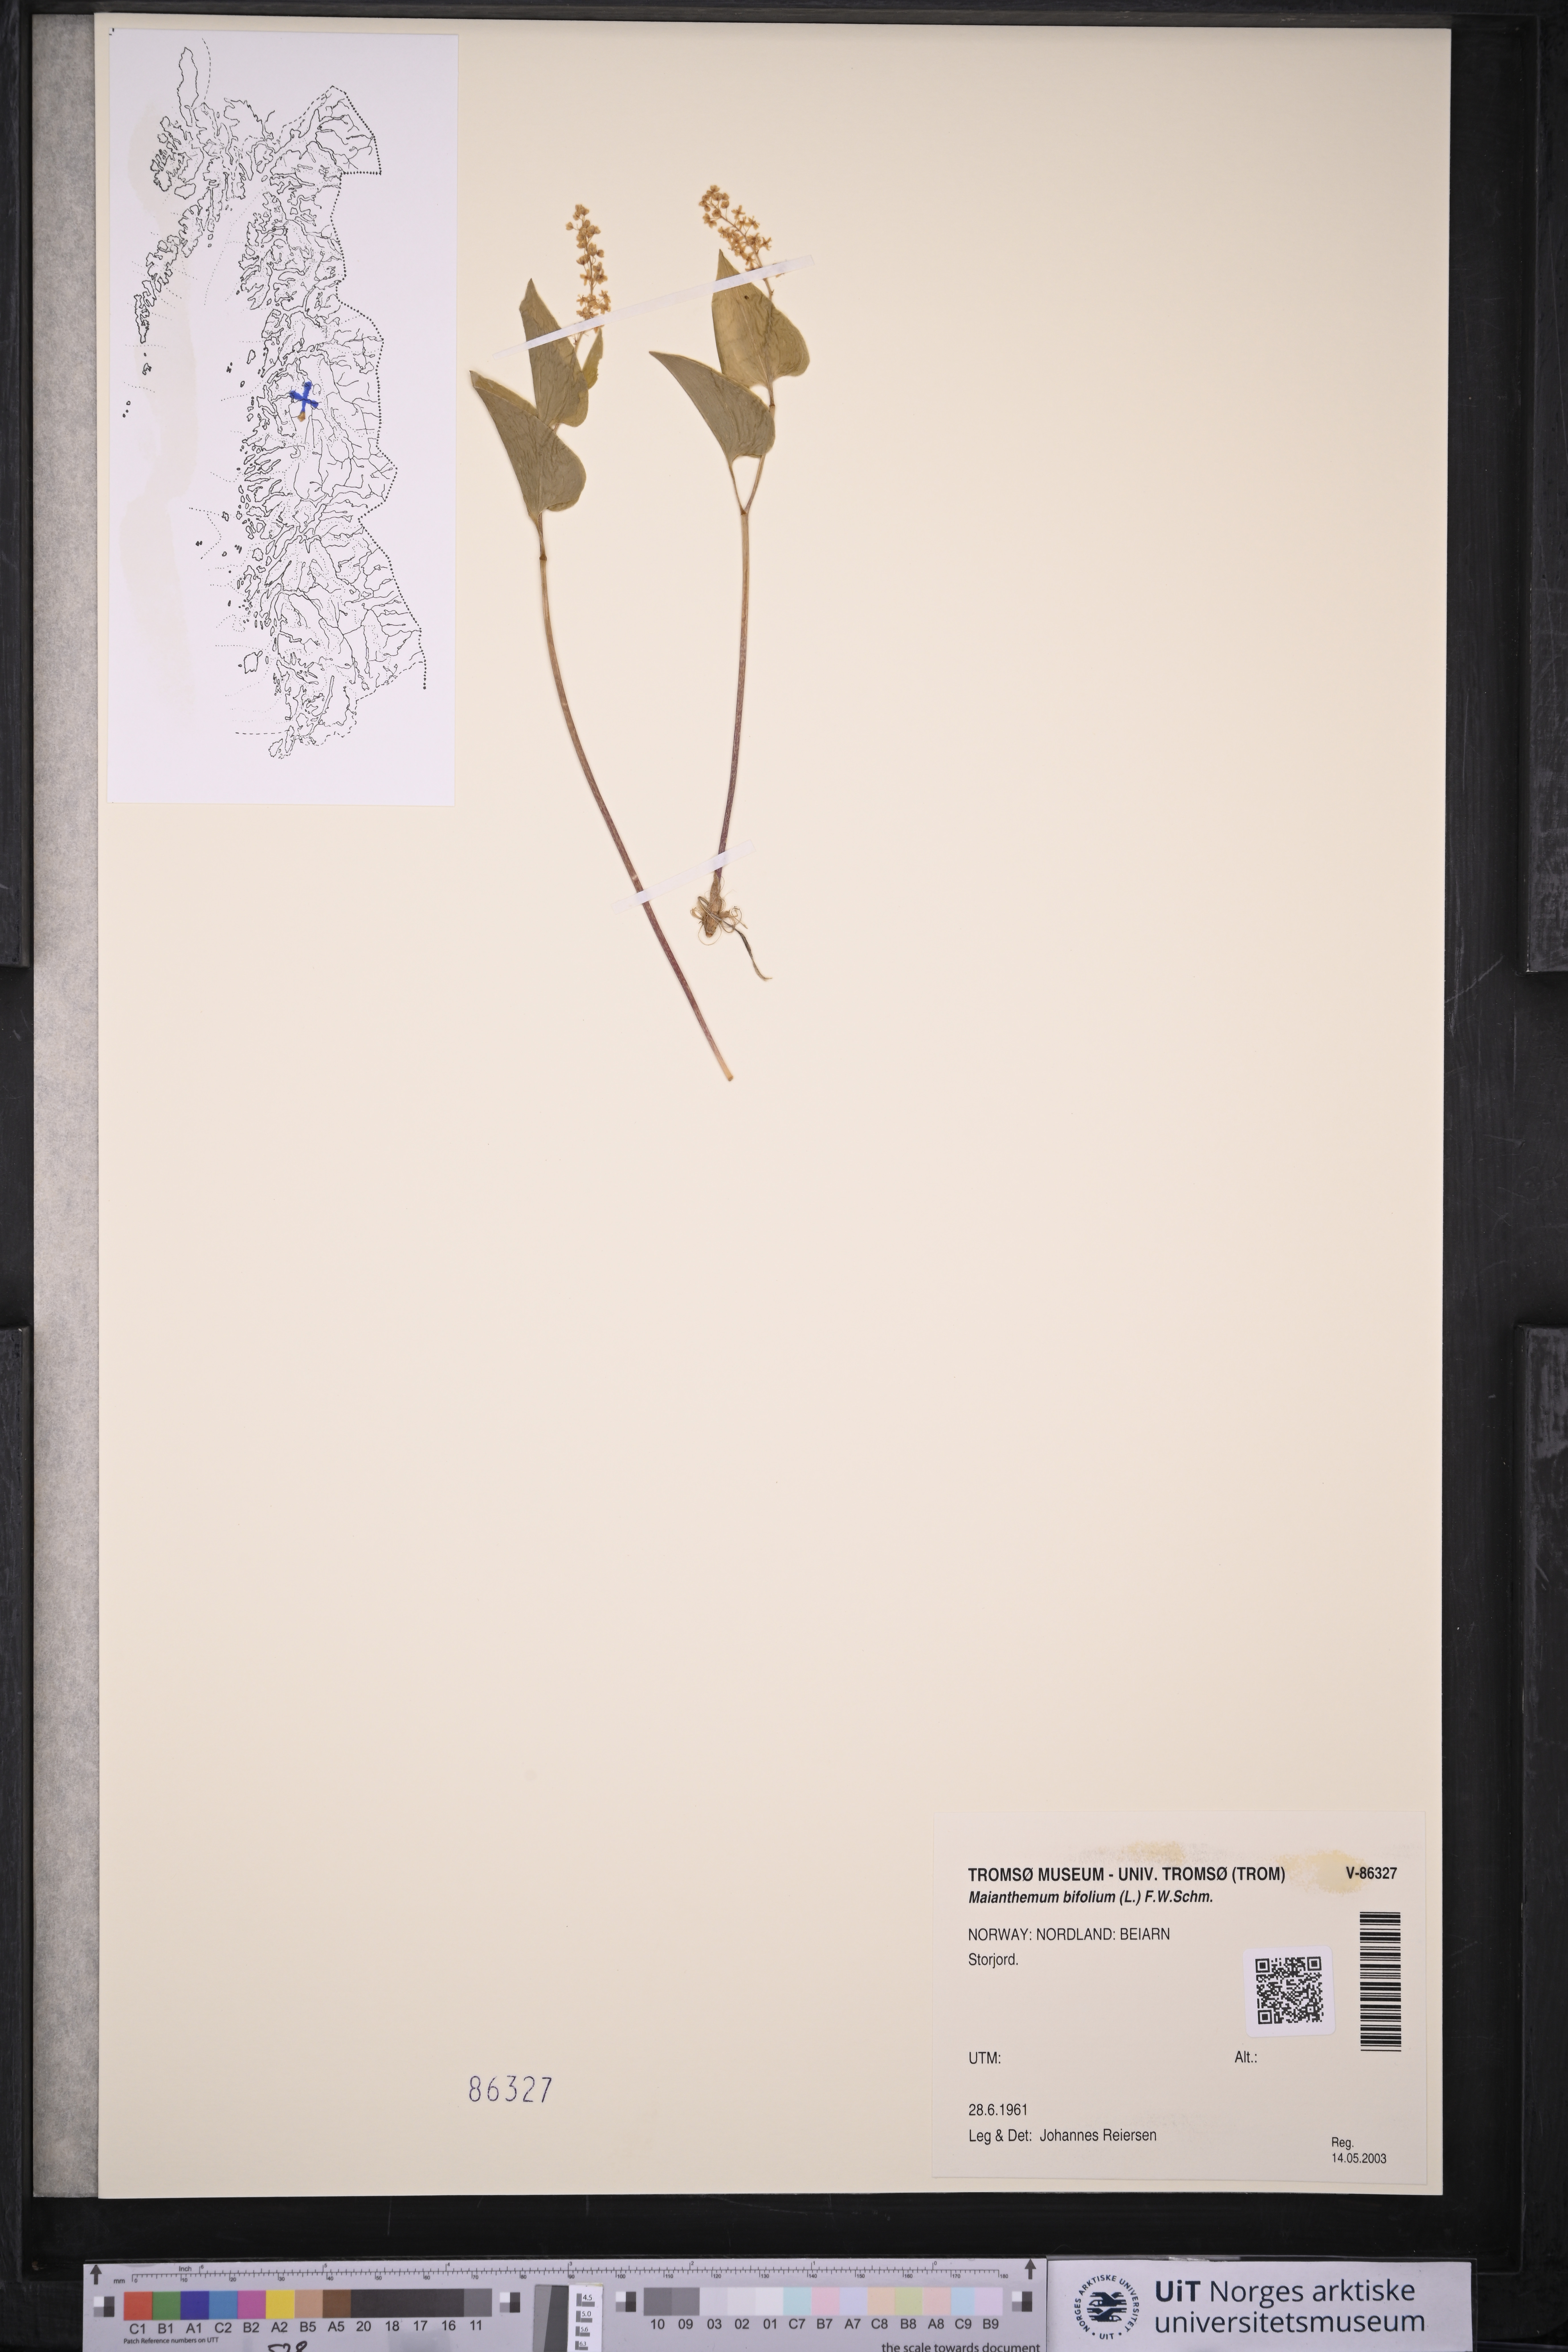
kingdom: Plantae
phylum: Tracheophyta
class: Liliopsida
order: Asparagales
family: Asparagaceae
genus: Maianthemum
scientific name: Maianthemum bifolium
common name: May lily
